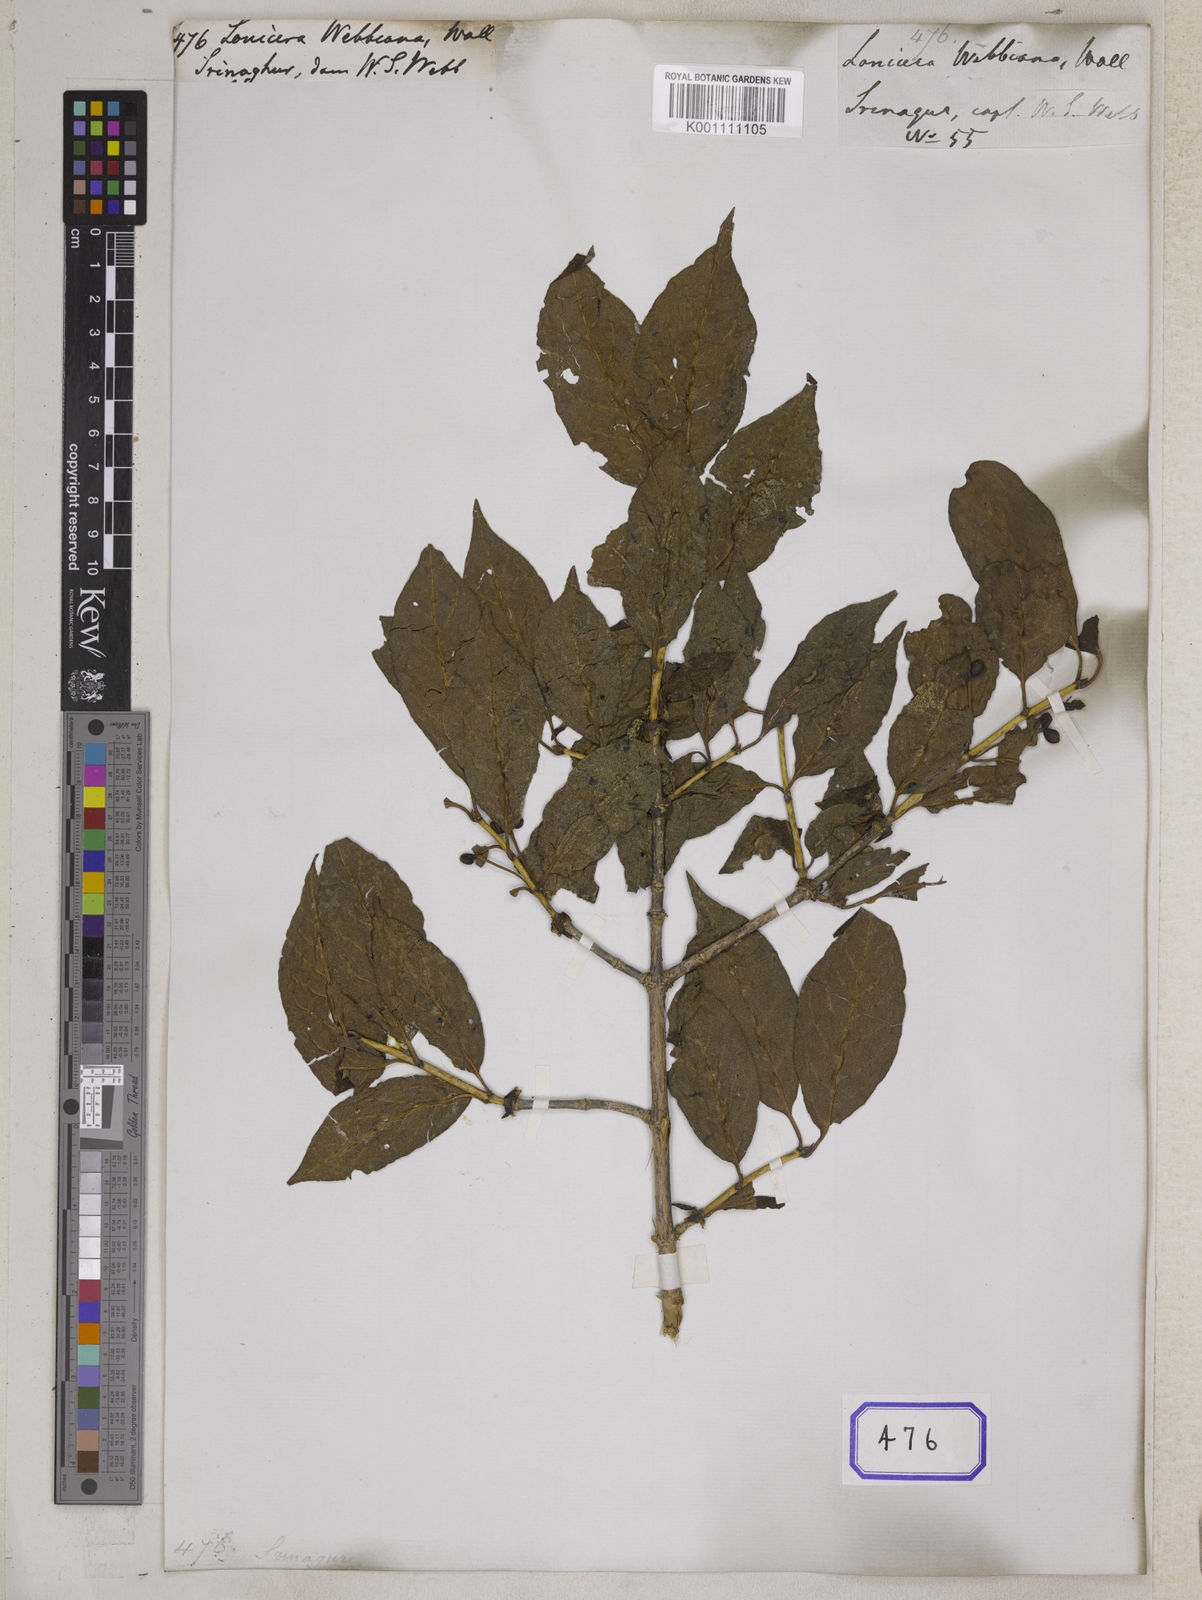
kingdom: Plantae
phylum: Tracheophyta
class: Magnoliopsida
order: Dipsacales
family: Caprifoliaceae
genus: Lonicera
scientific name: Lonicera
